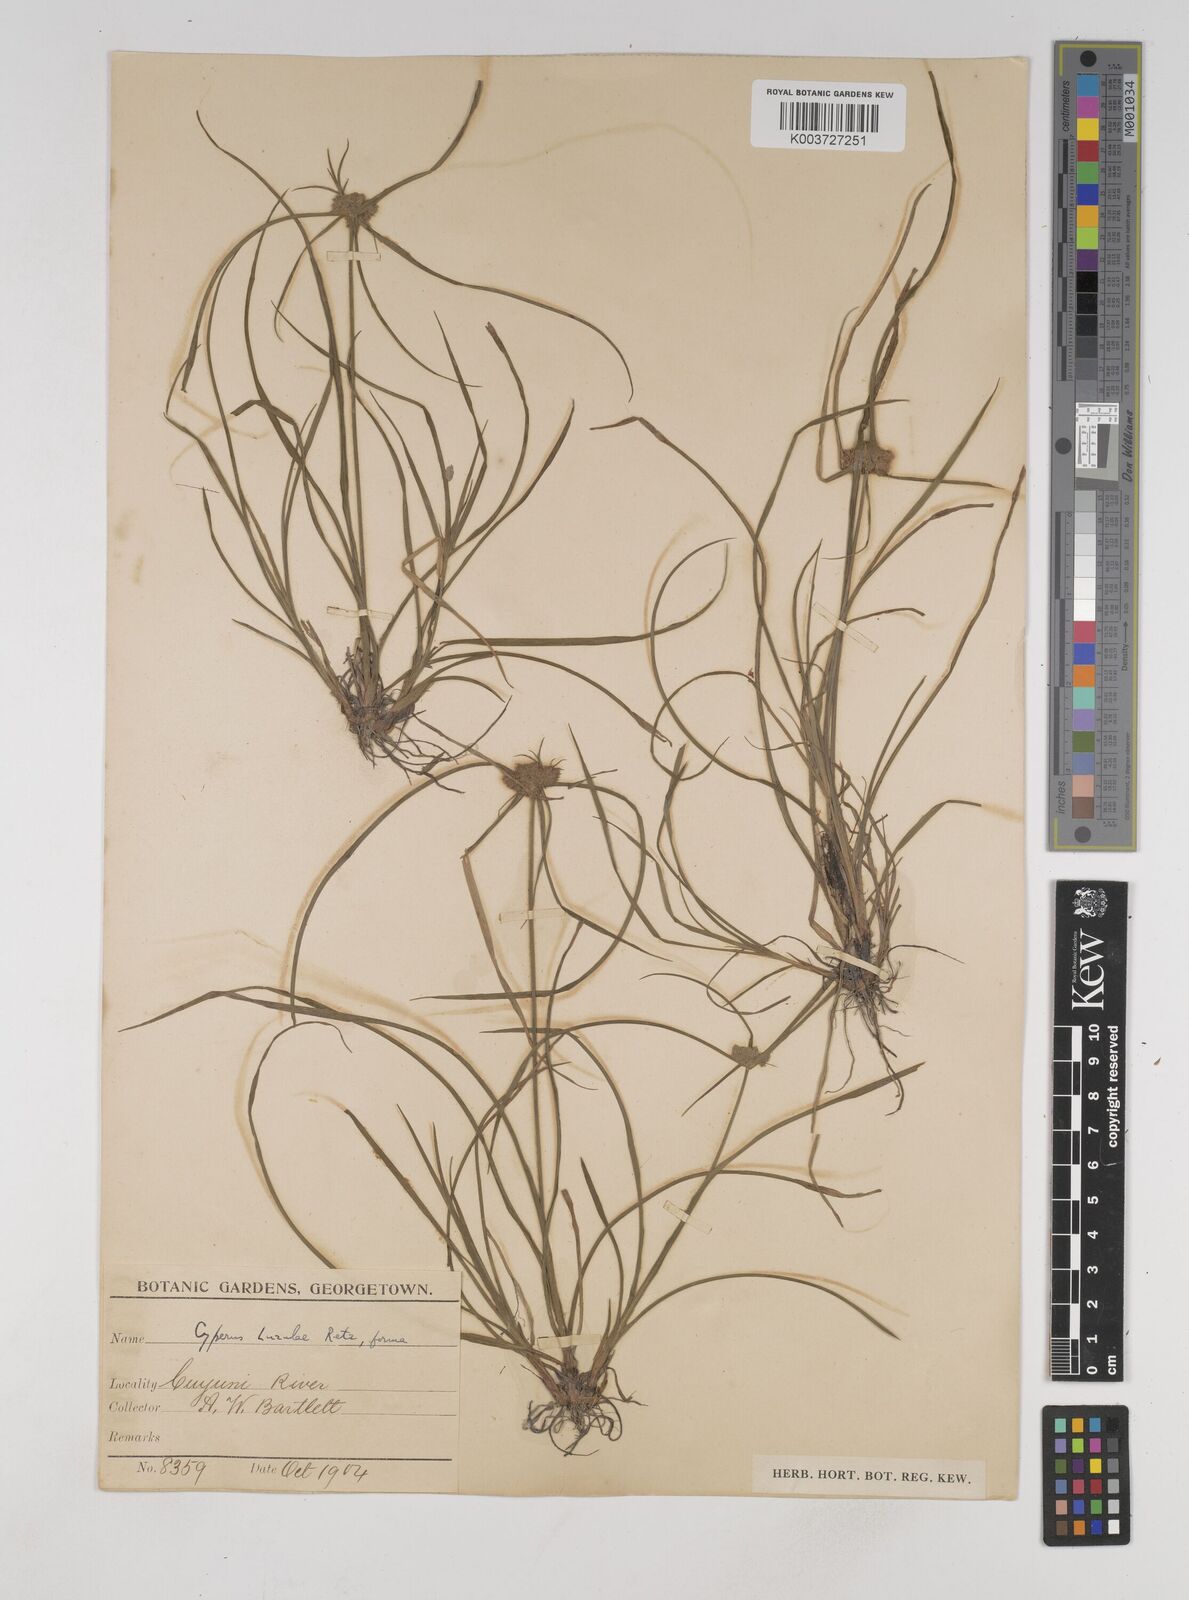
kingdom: Plantae
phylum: Tracheophyta
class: Liliopsida
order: Poales
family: Cyperaceae
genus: Cyperus
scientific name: Cyperus luzulae
